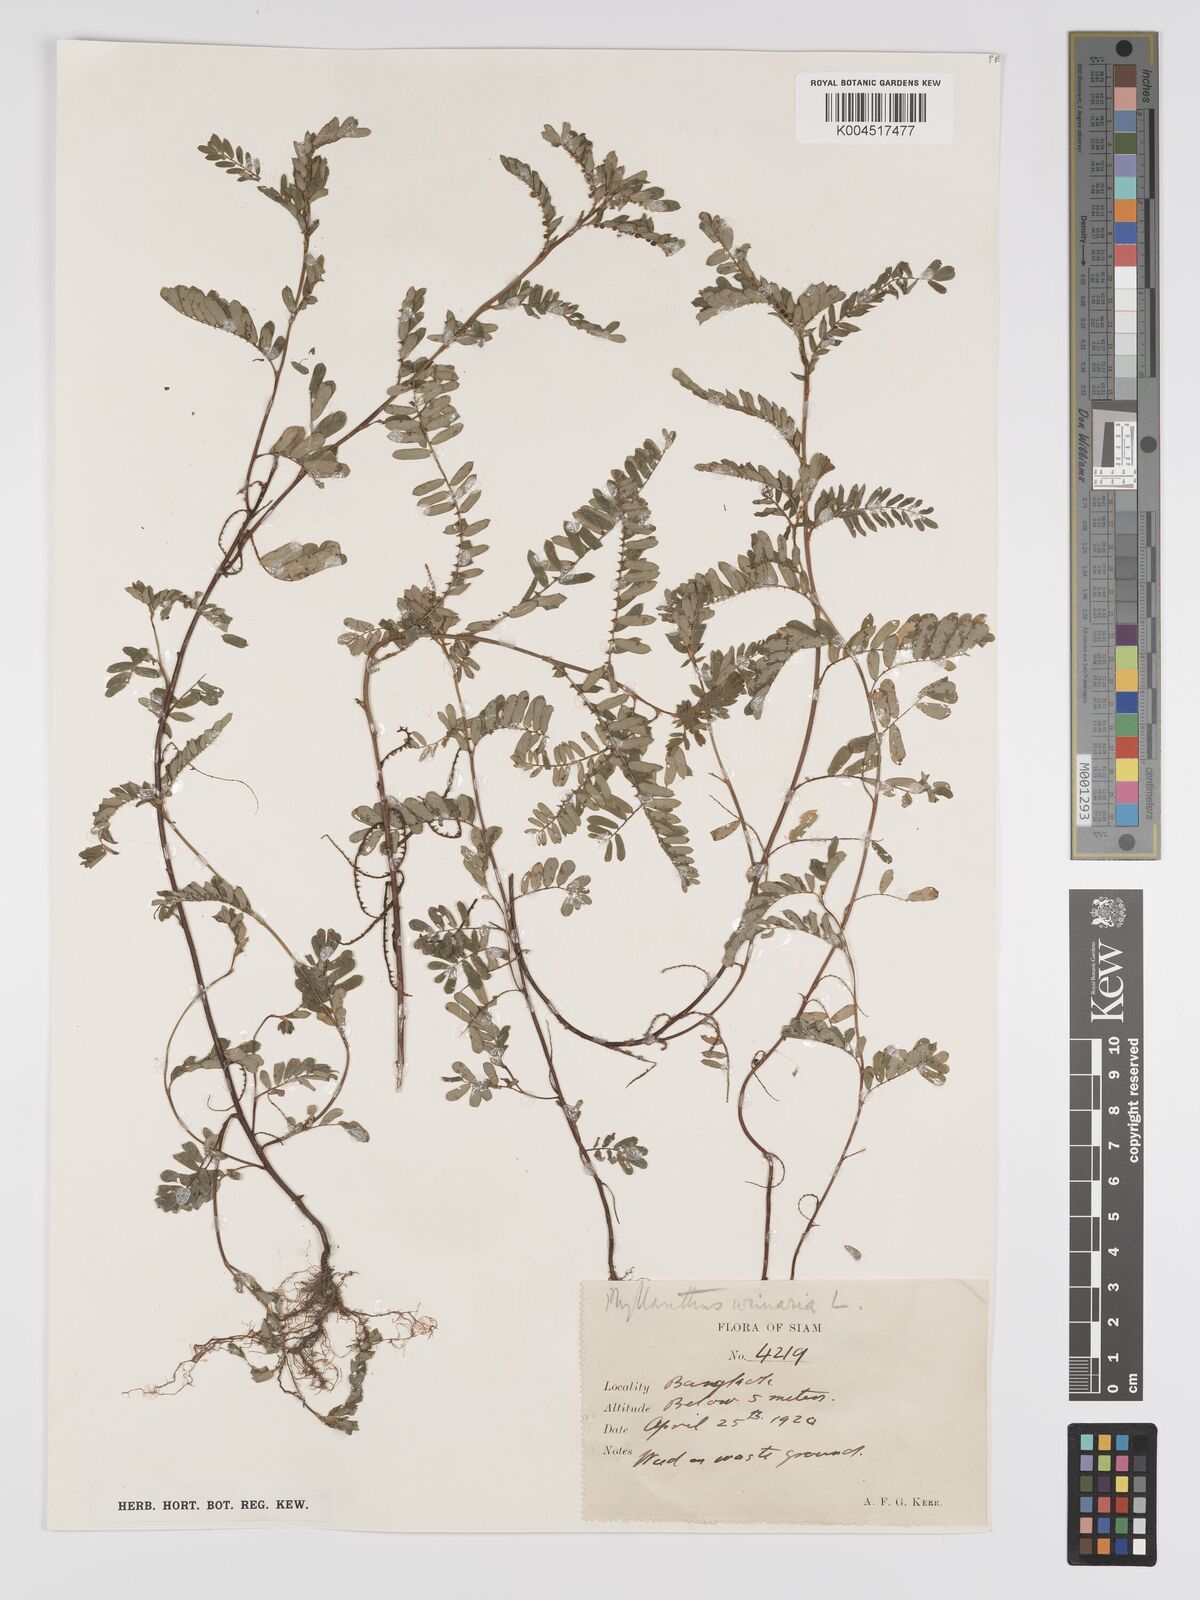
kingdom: Plantae
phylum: Tracheophyta
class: Magnoliopsida
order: Malpighiales
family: Phyllanthaceae
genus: Phyllanthus
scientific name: Phyllanthus urinaria
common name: Chamber bitter
